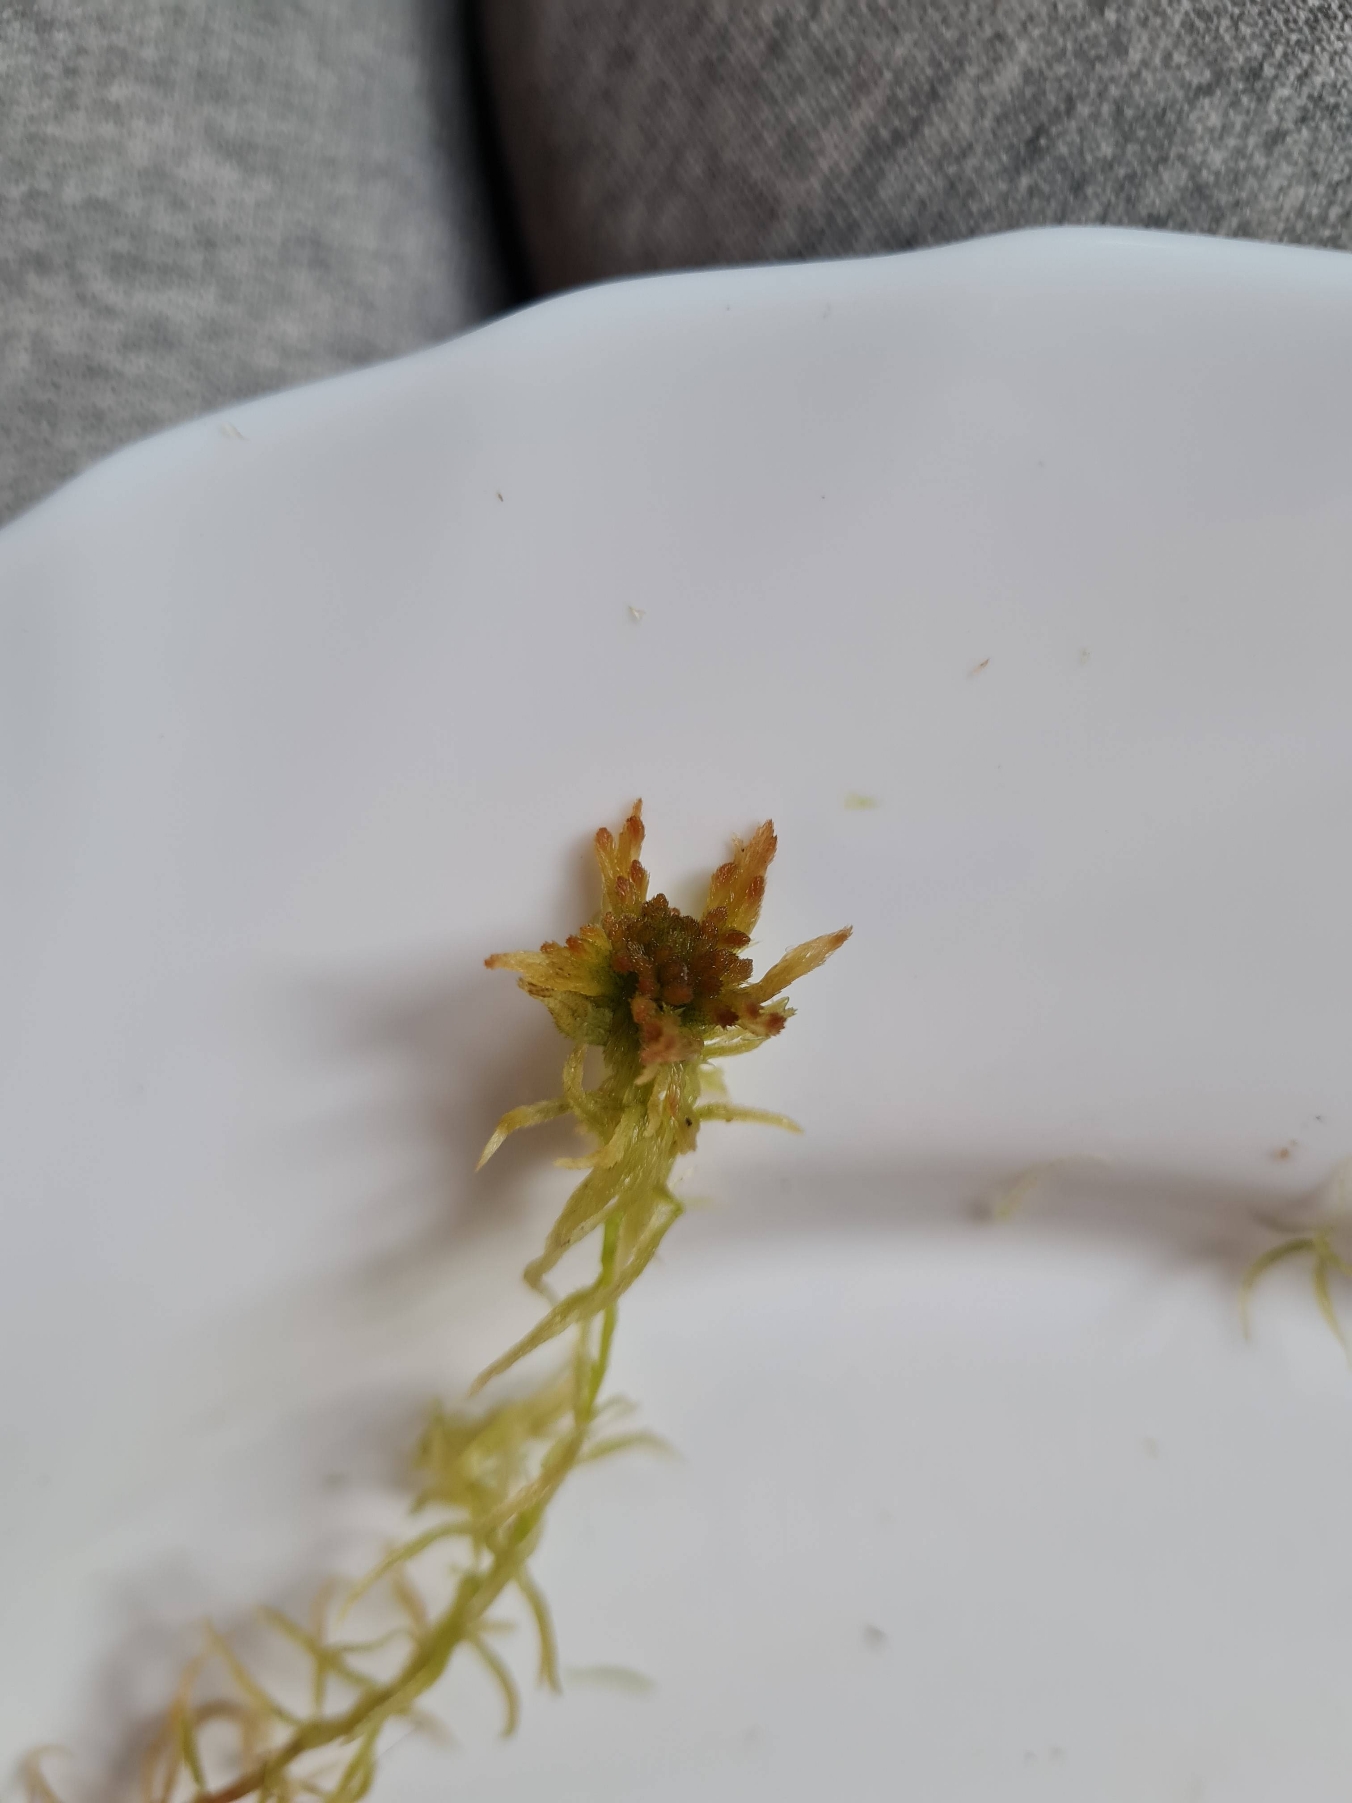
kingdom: Plantae
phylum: Bryophyta
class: Sphagnopsida
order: Sphagnales
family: Sphagnaceae
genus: Sphagnum
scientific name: Sphagnum fallax
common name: Brodspids-tørvemos
